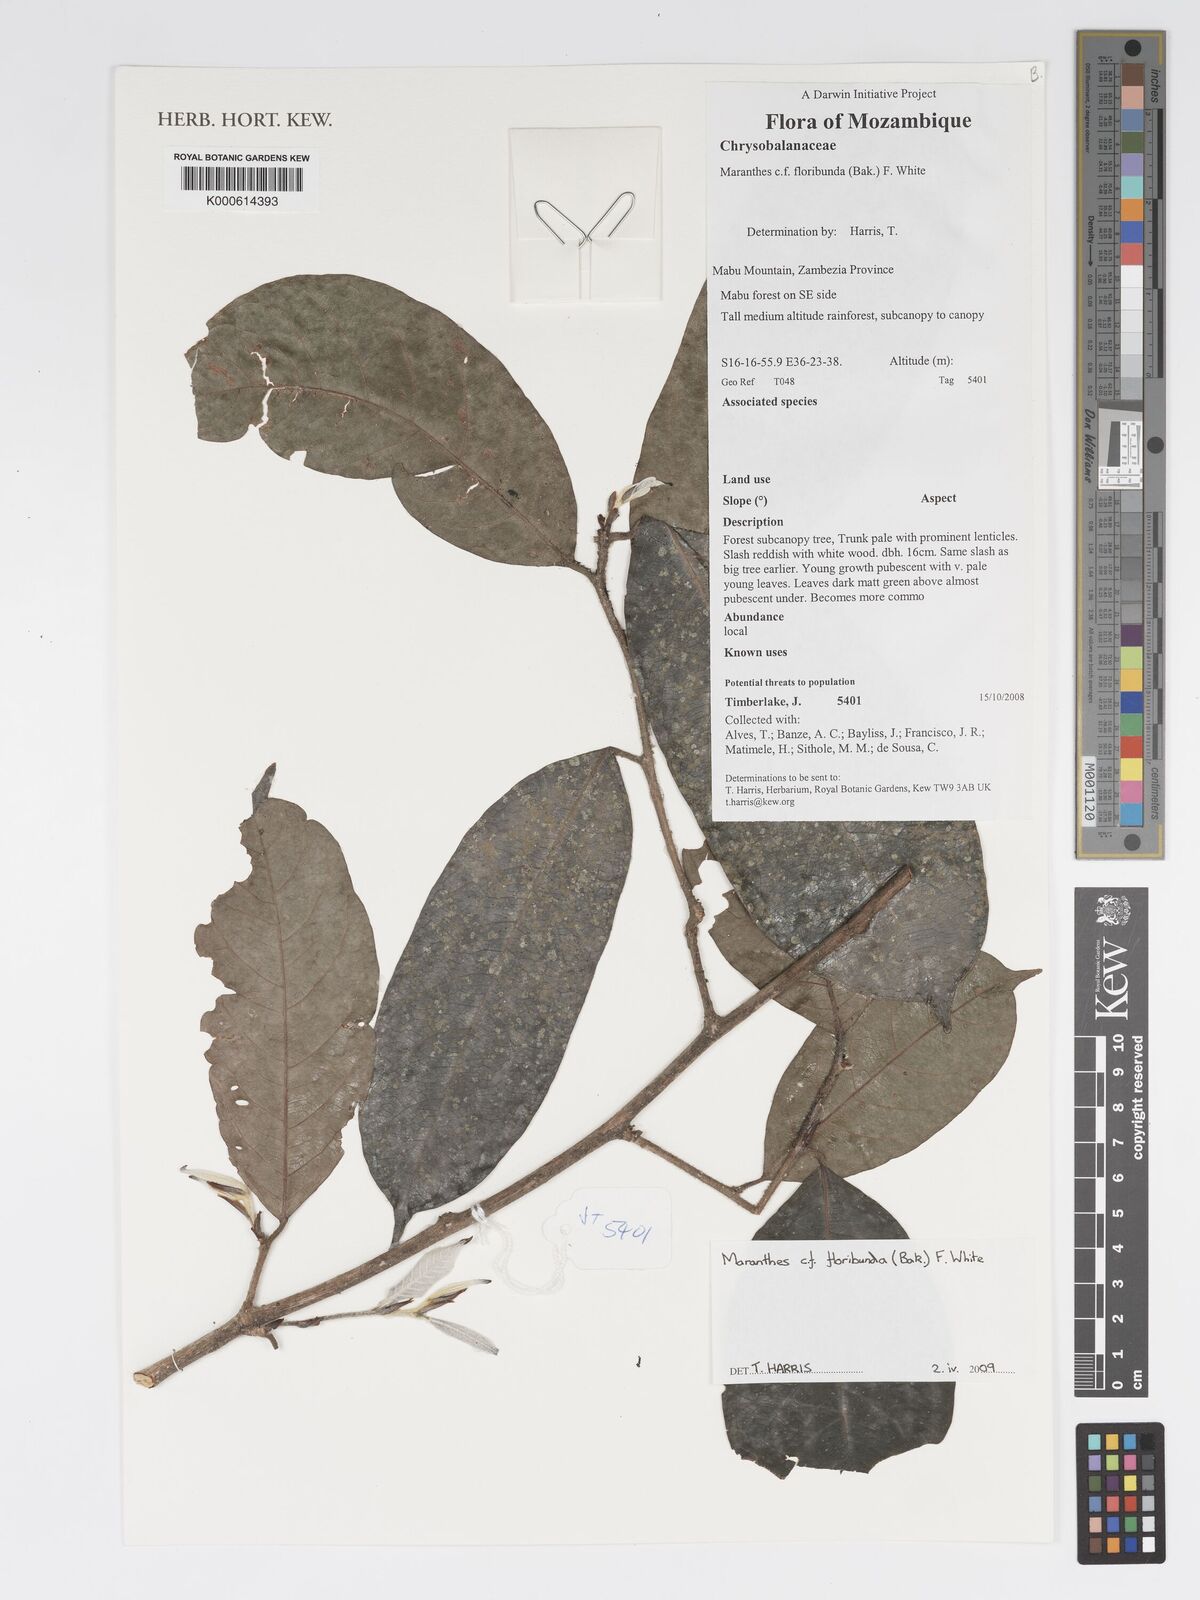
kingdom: Plantae
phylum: Tracheophyta
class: Magnoliopsida
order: Malpighiales
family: Chrysobalanaceae
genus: Maranthes
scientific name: Maranthes floribunda
